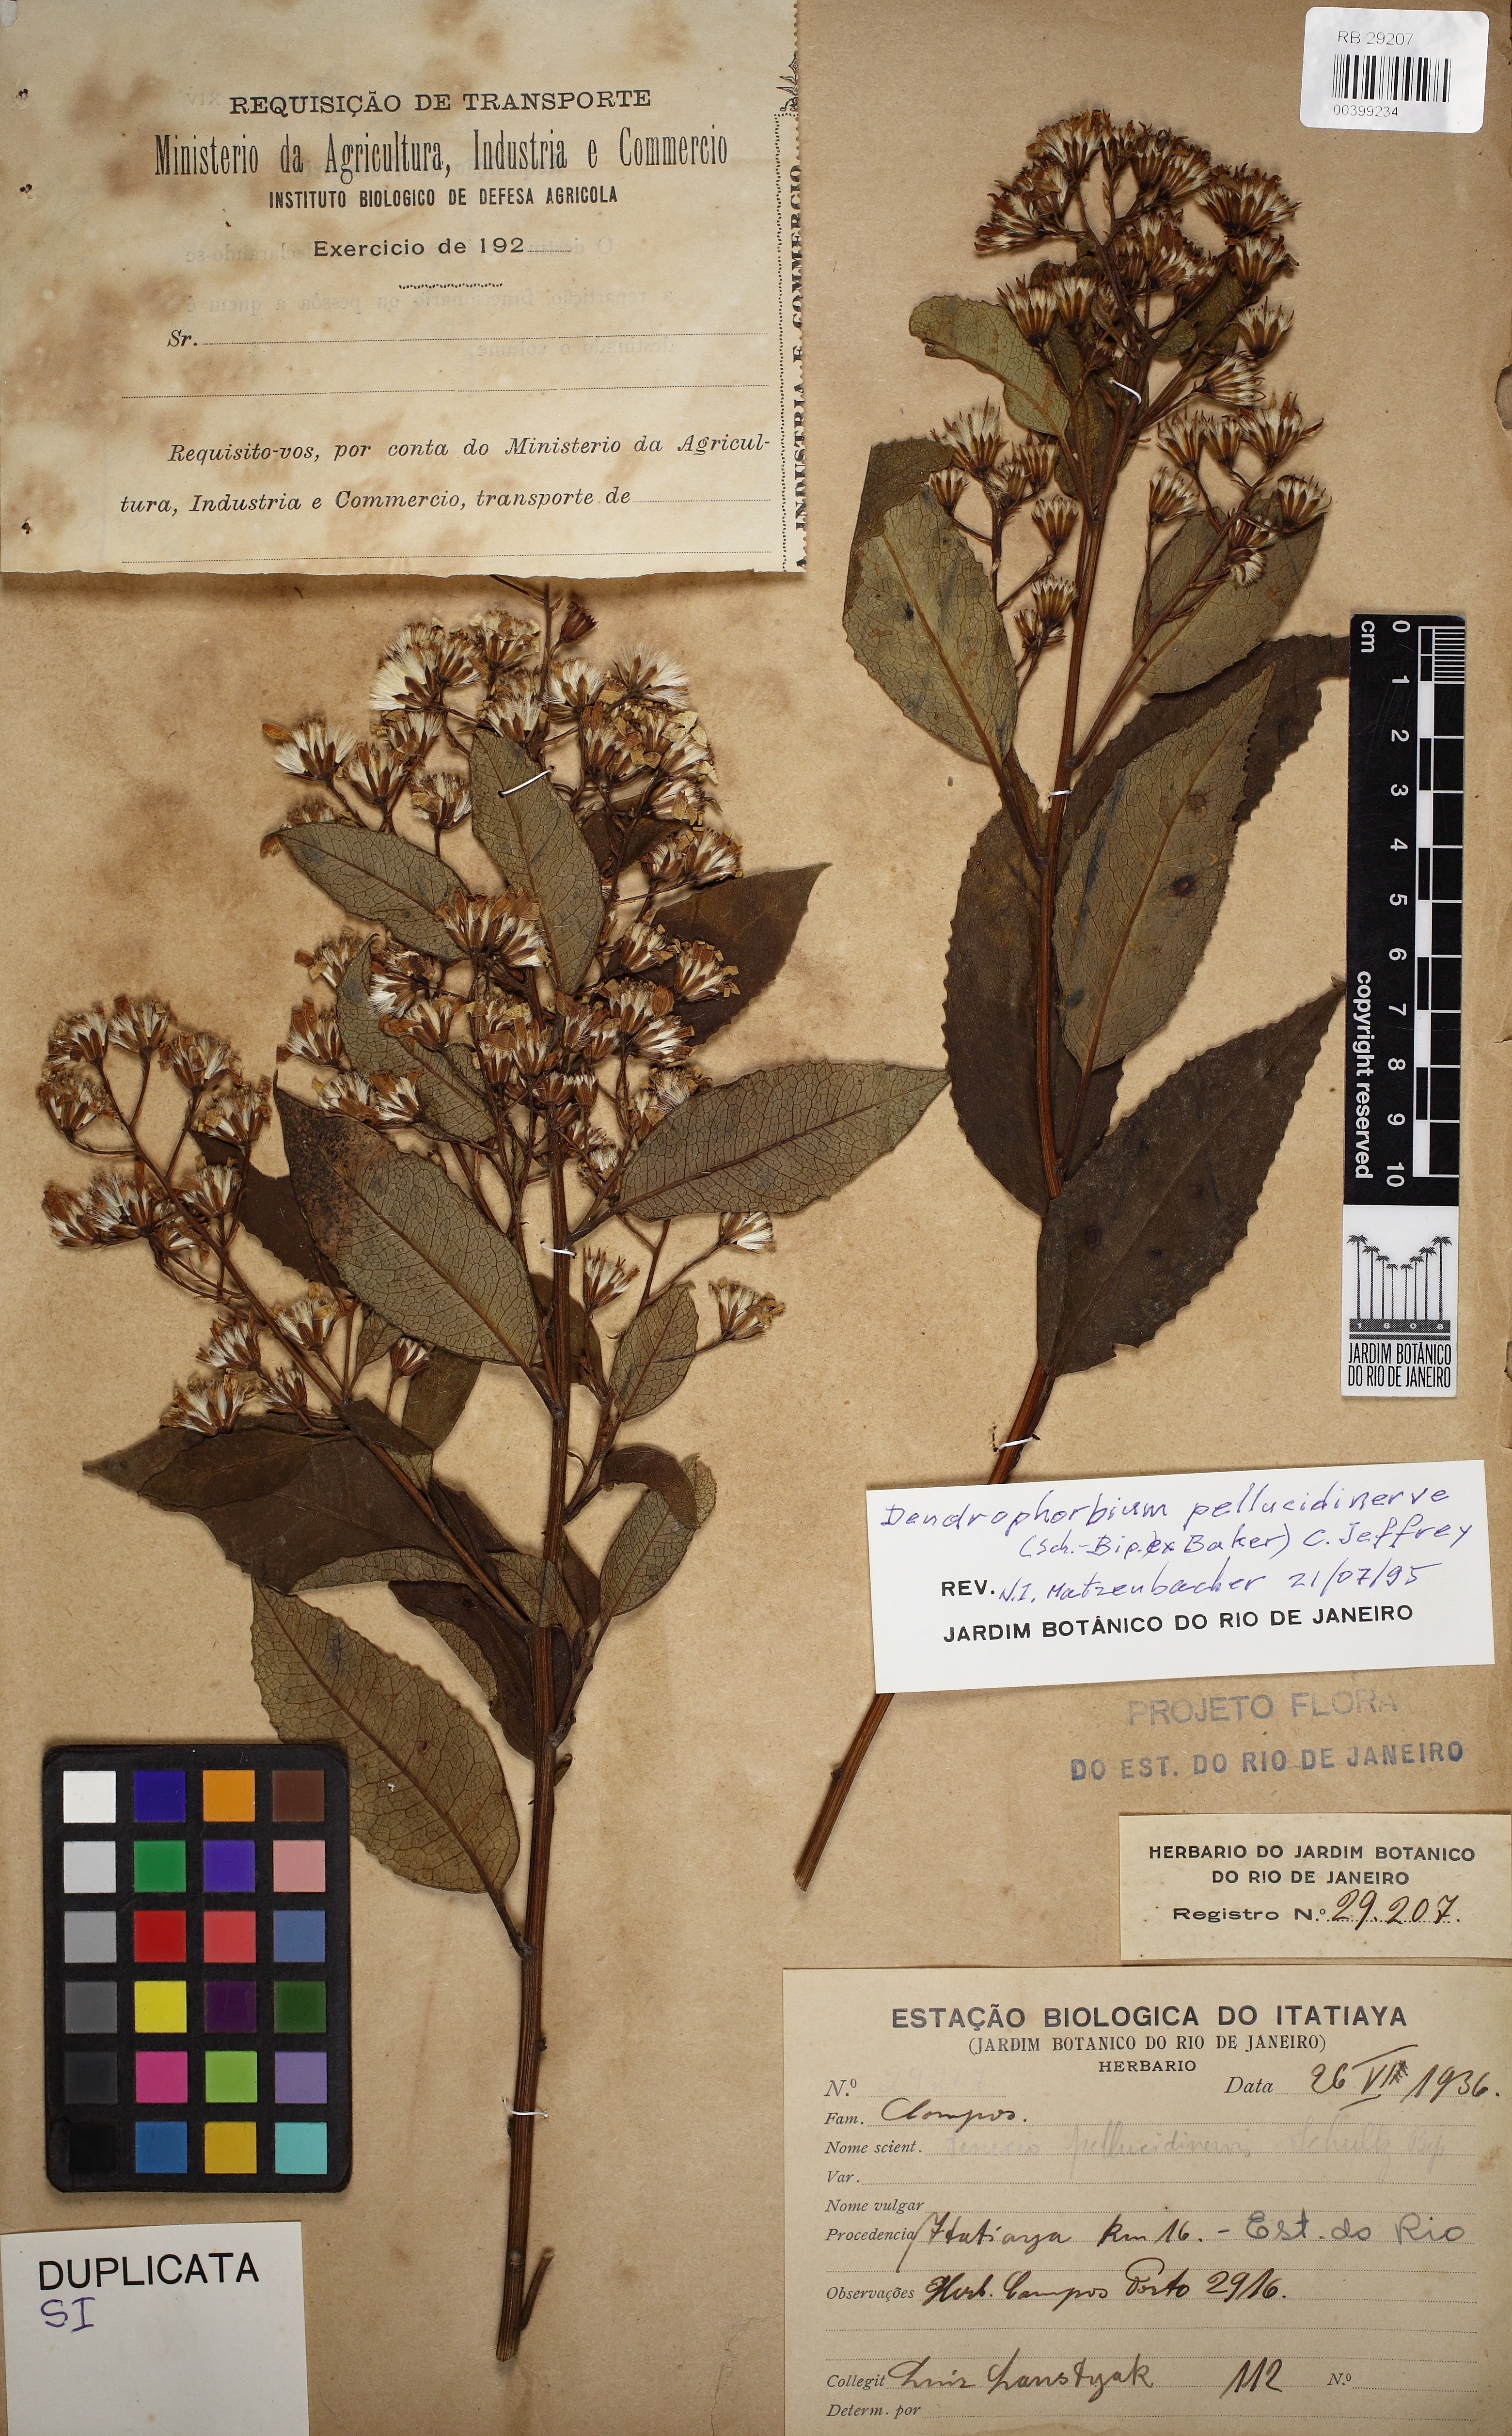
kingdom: Plantae
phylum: Tracheophyta
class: Magnoliopsida
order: Asterales
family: Asteraceae
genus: Dendrophorbium
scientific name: Dendrophorbium pellucidinerve
